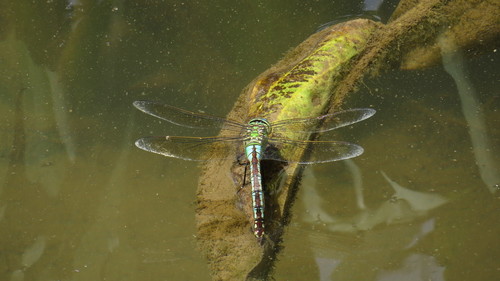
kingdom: Animalia
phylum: Arthropoda
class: Insecta
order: Odonata
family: Aeshnidae
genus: Anax
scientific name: Anax imperator
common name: Emperor dragonfly
